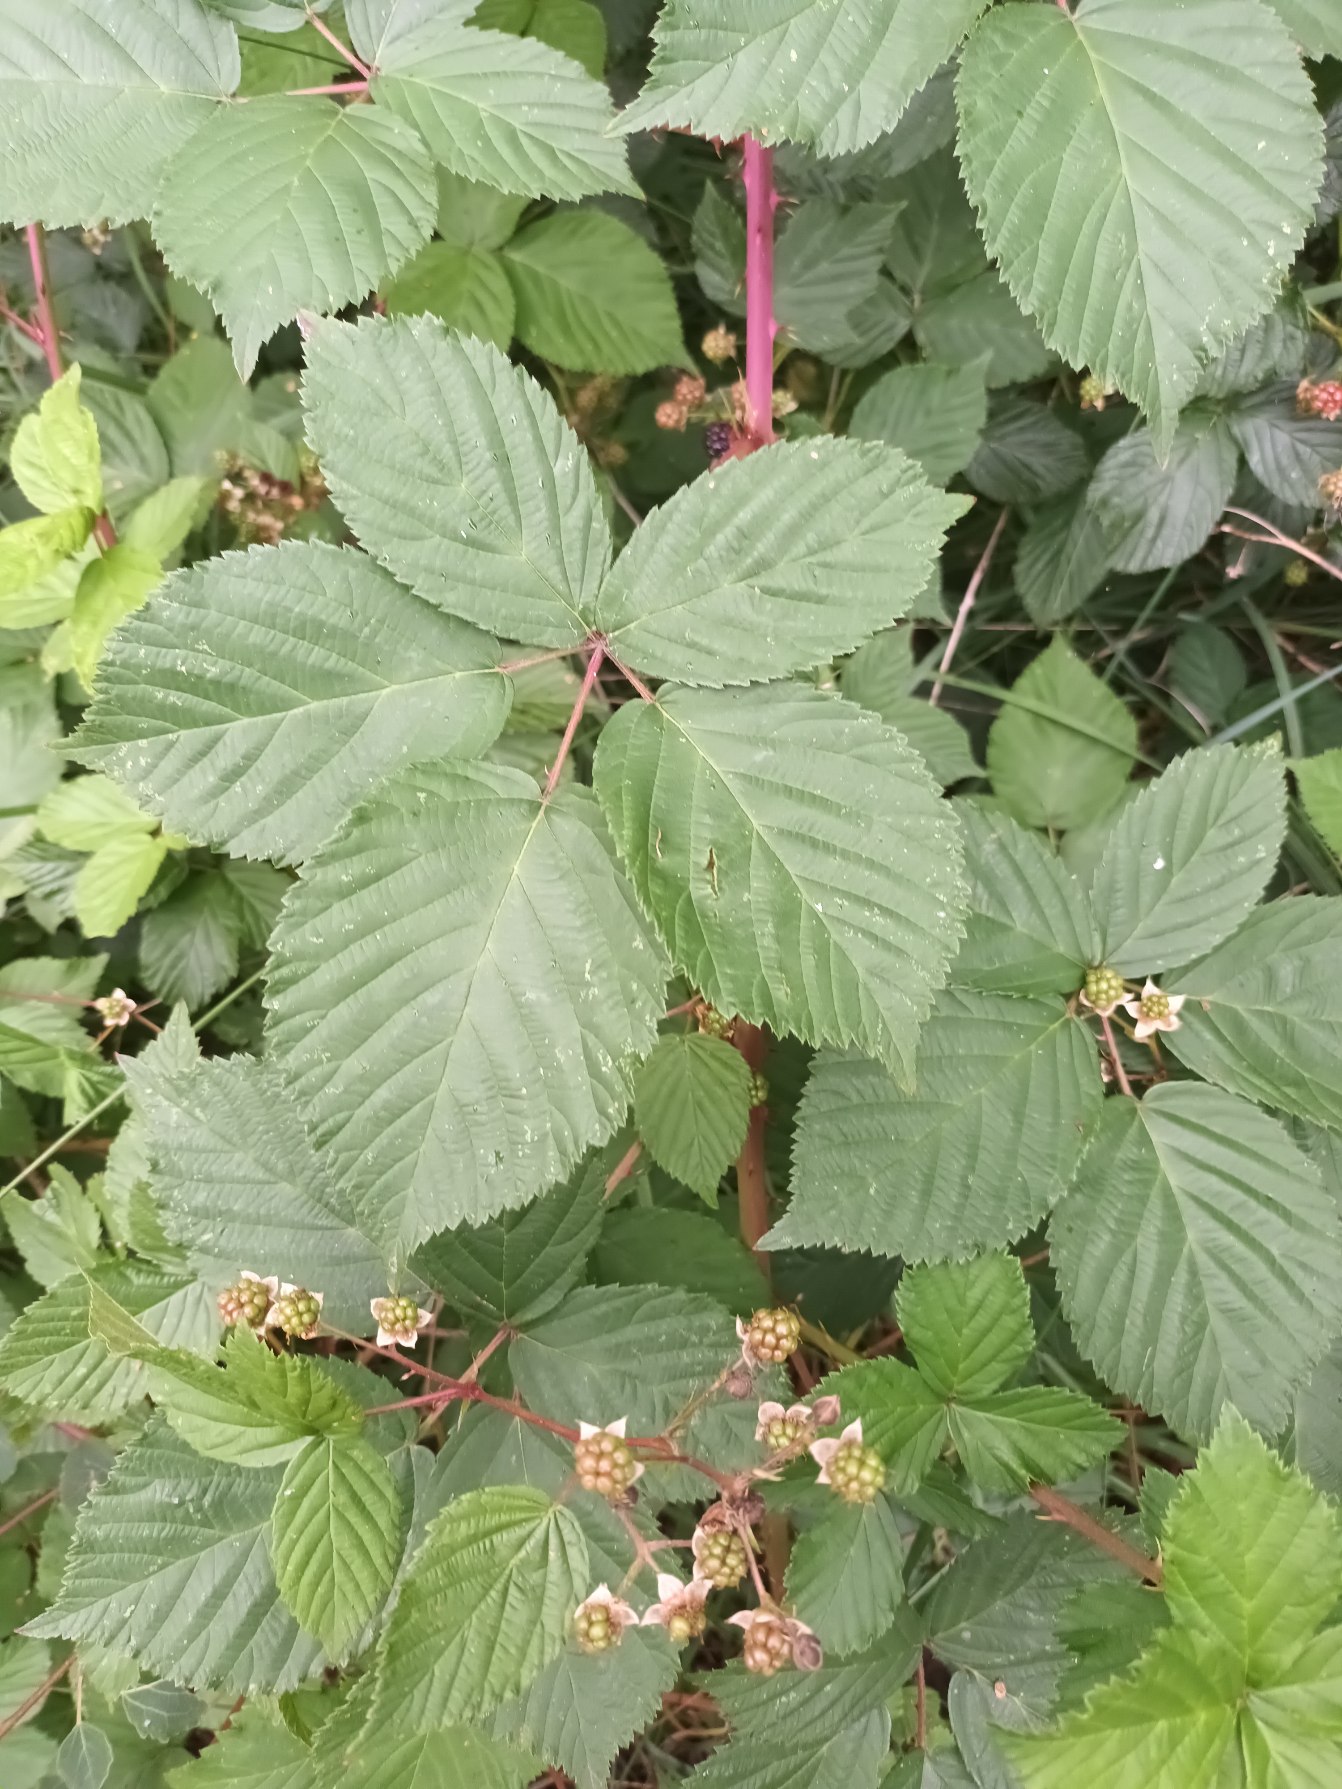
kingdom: Plantae
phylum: Tracheophyta
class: Magnoliopsida
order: Rosales
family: Rosaceae
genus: Rubus
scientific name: Rubus plicatus
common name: Almindelig brombær
